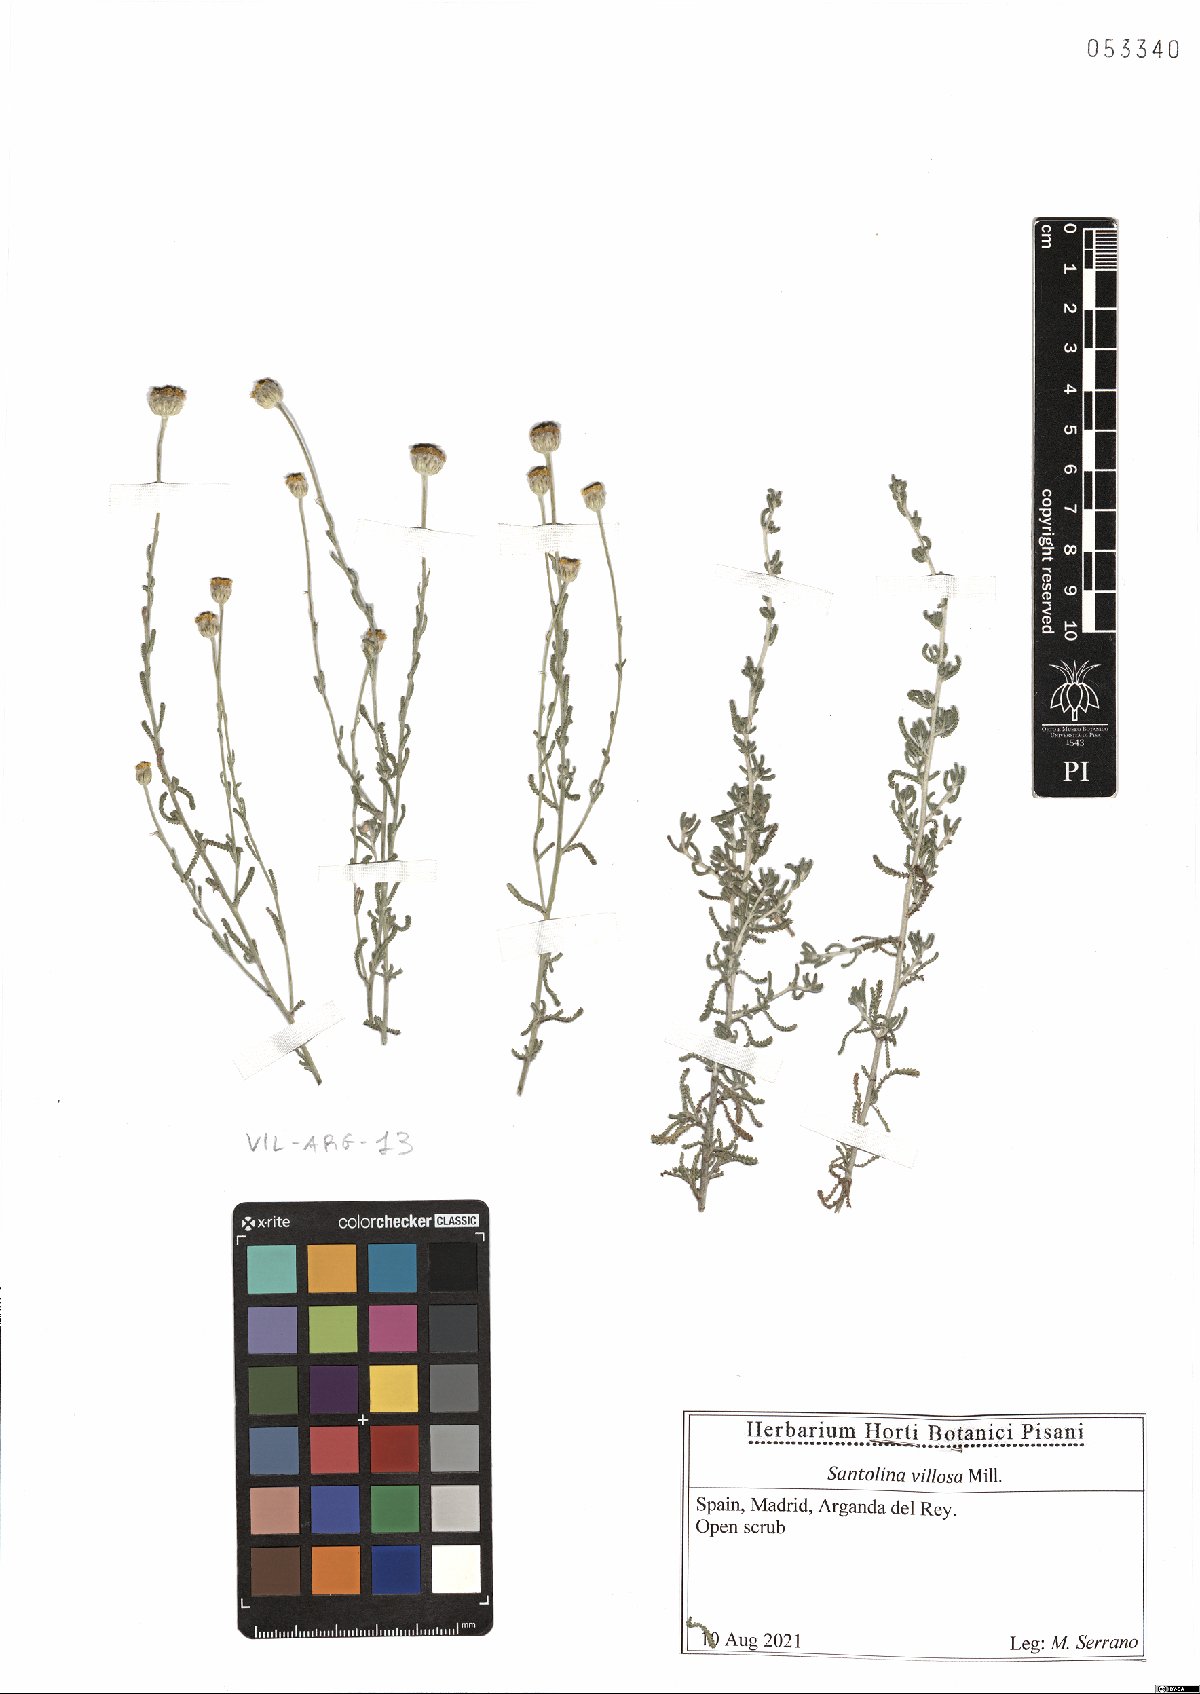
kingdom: Plantae
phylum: Tracheophyta
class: Magnoliopsida
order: Asterales
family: Asteraceae
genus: Santolina
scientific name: Santolina chamaecyparissus
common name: Lavender-cotton
